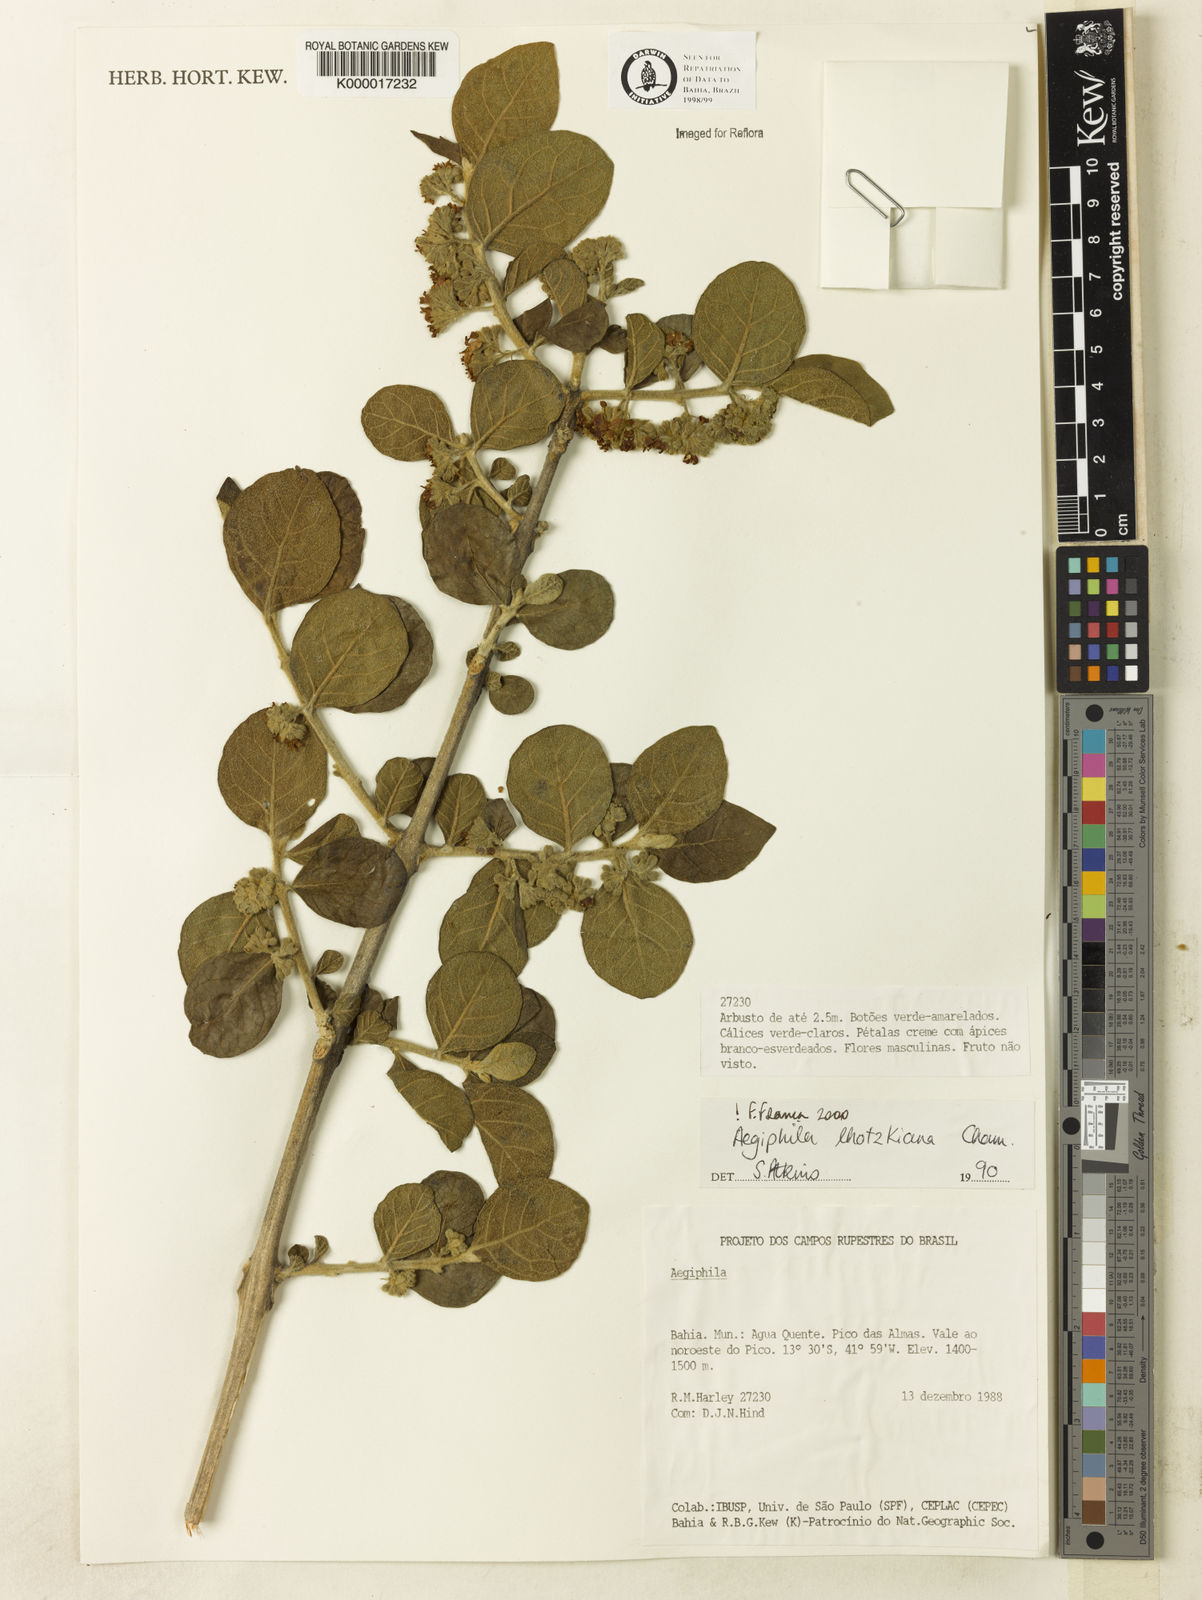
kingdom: Plantae
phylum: Tracheophyta
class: Magnoliopsida
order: Lamiales
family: Lamiaceae
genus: Aegiphila
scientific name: Aegiphila verticillata
